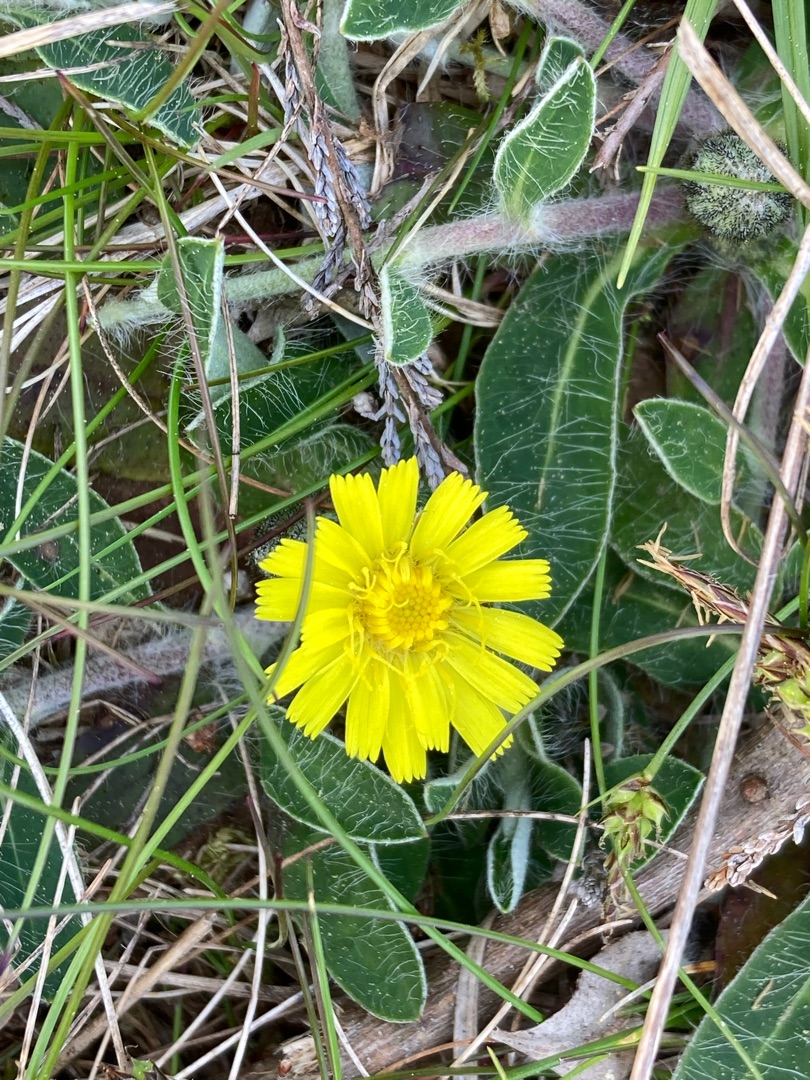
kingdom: Plantae
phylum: Tracheophyta
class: Magnoliopsida
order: Asterales
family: Asteraceae
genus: Pilosella
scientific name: Pilosella officinarum
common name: Håret høgeurt
